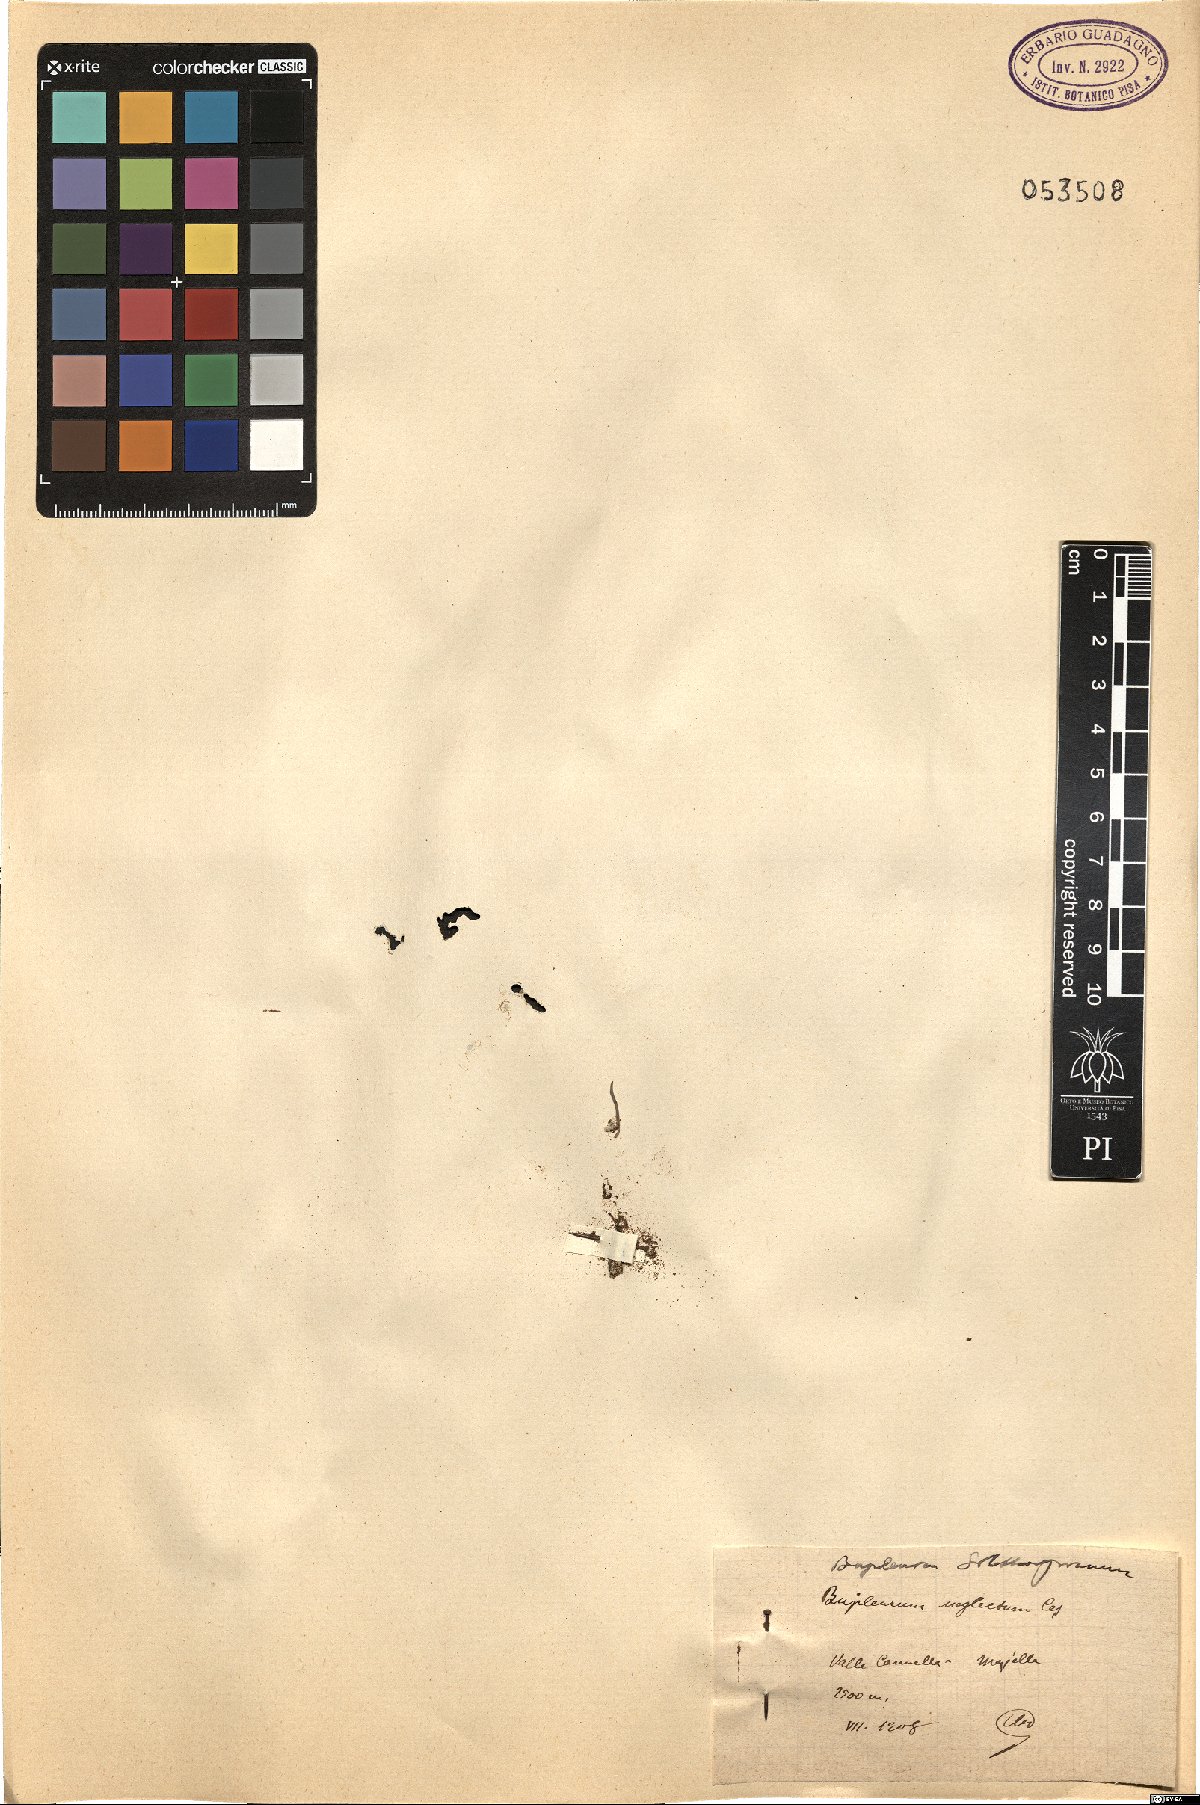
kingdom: Plantae
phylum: Tracheophyta
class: Magnoliopsida
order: Apiales
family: Apiaceae
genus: Bupleurum
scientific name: Bupleurum falcatum
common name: Sickle-leaved hare's-ear
